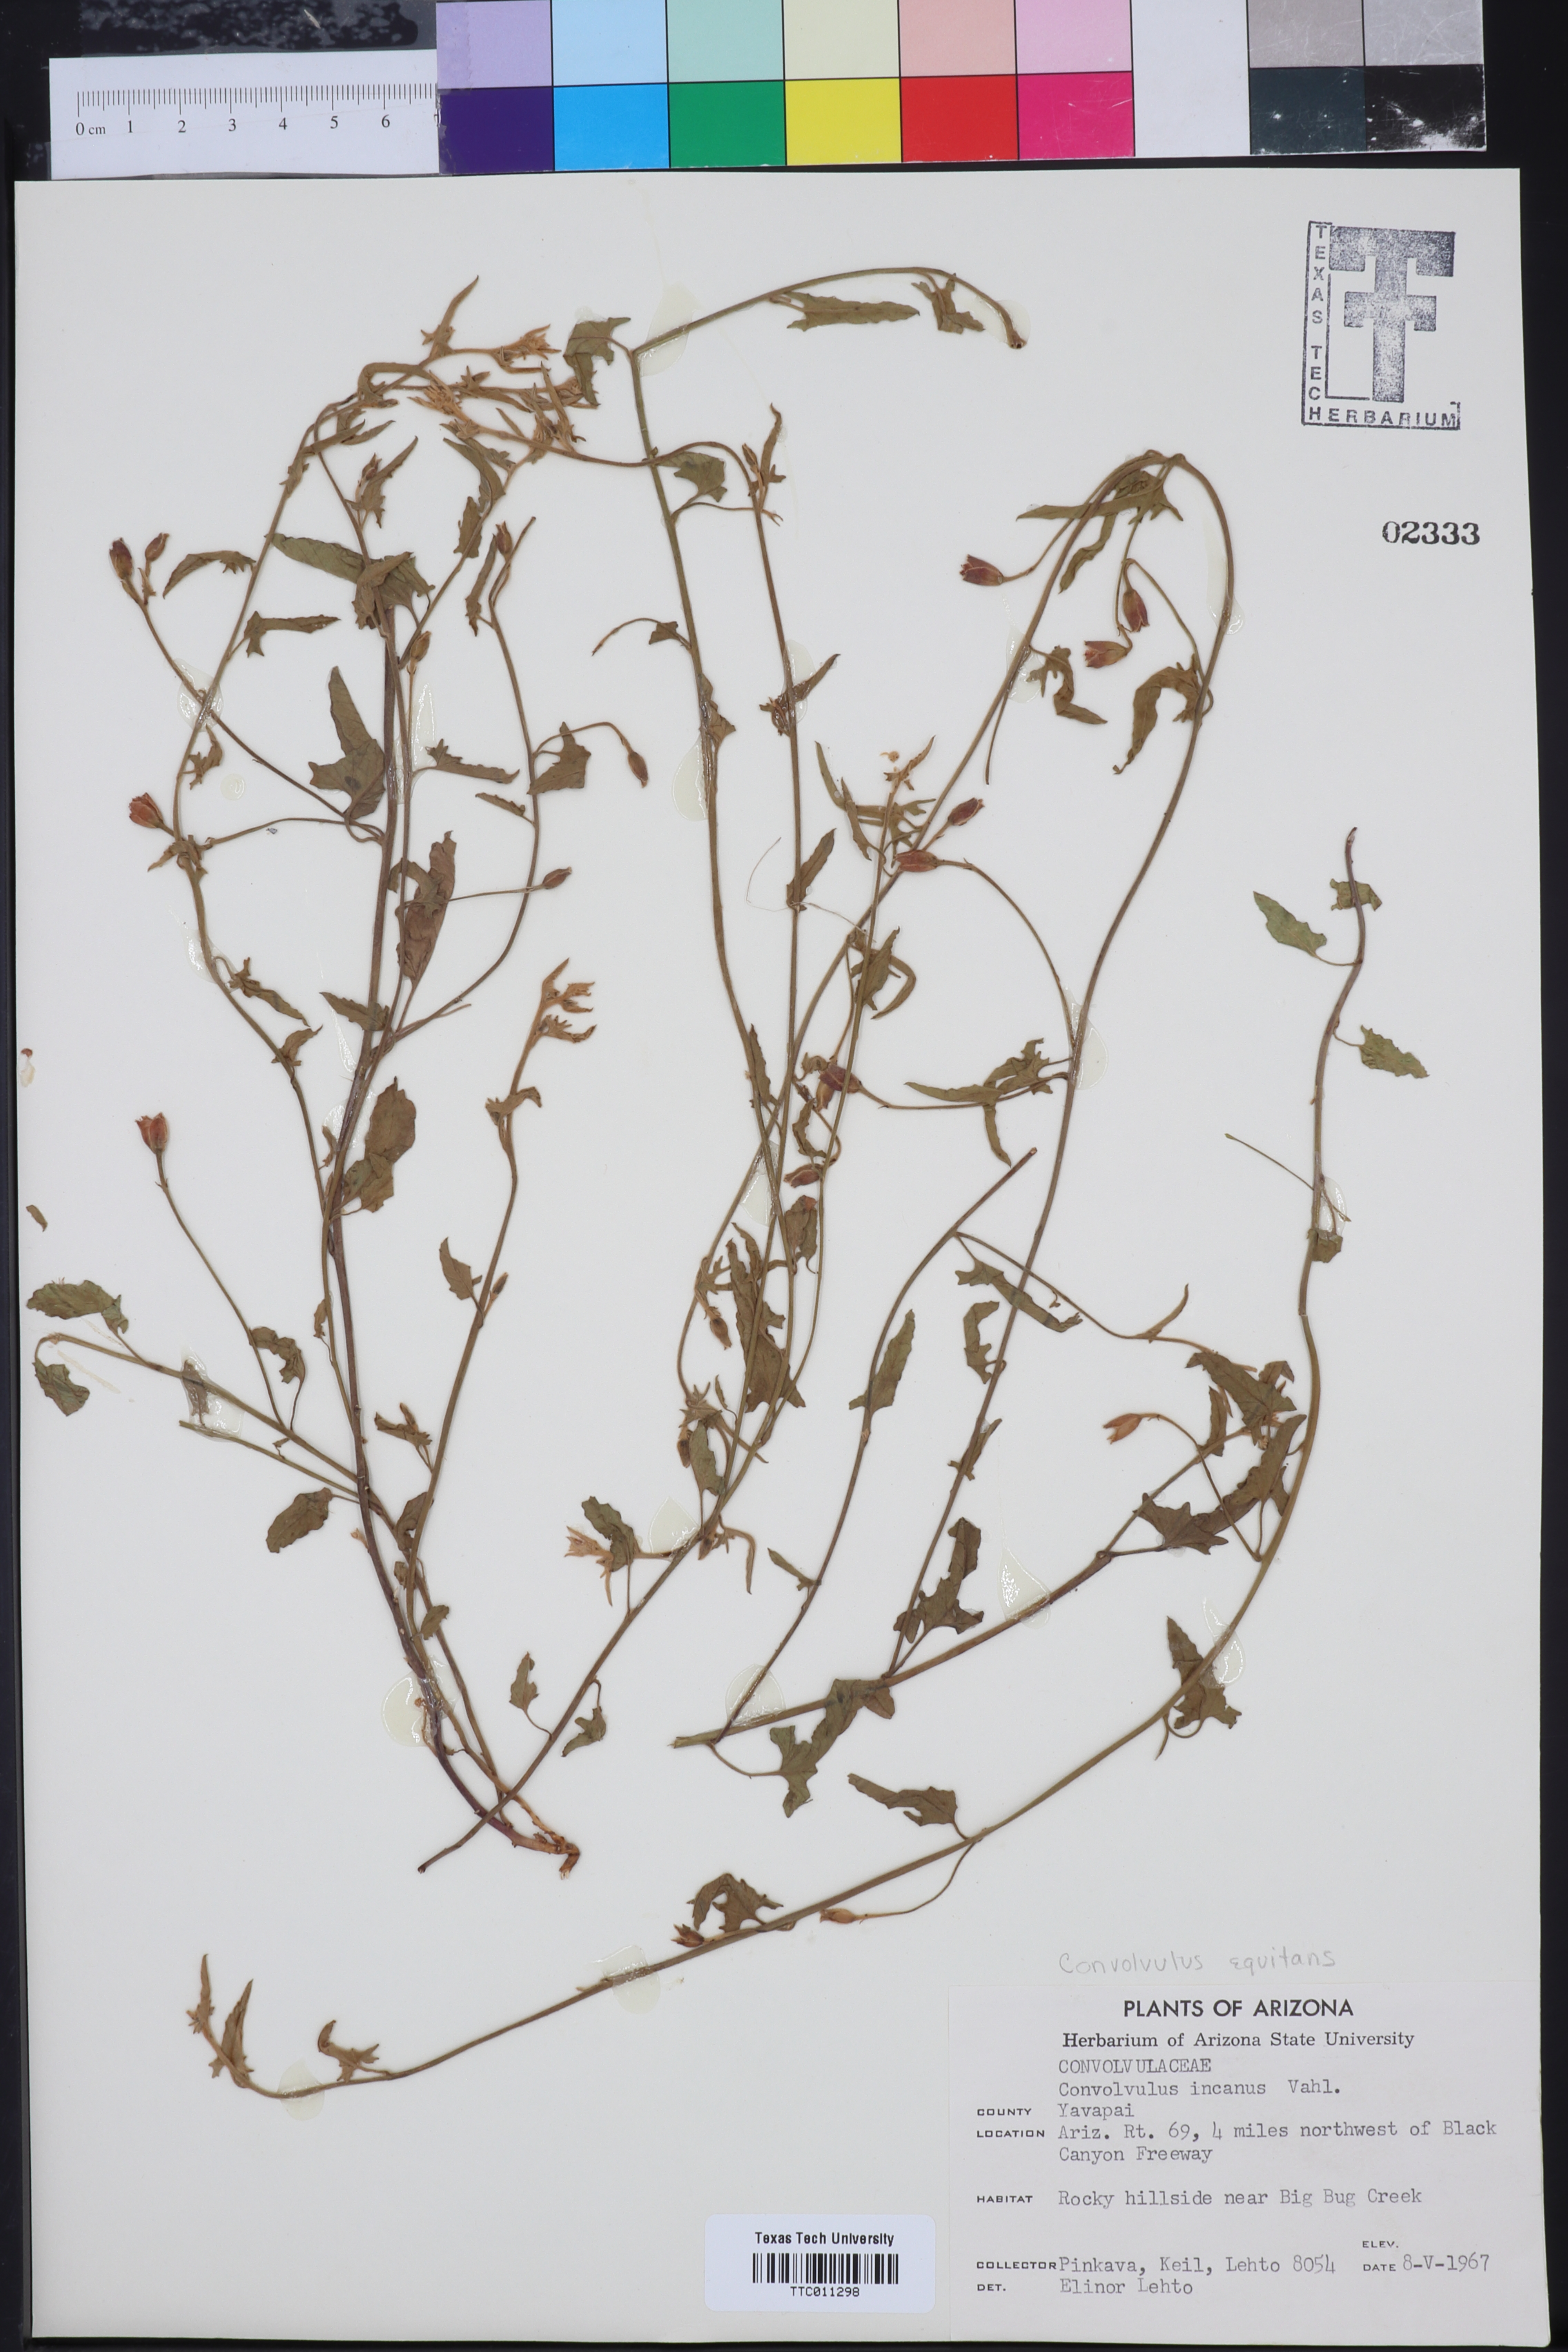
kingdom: Plantae
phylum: Tracheophyta
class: Magnoliopsida
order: Solanales
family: Convolvulaceae
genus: Convolvulus
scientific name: Convolvulus equitans
